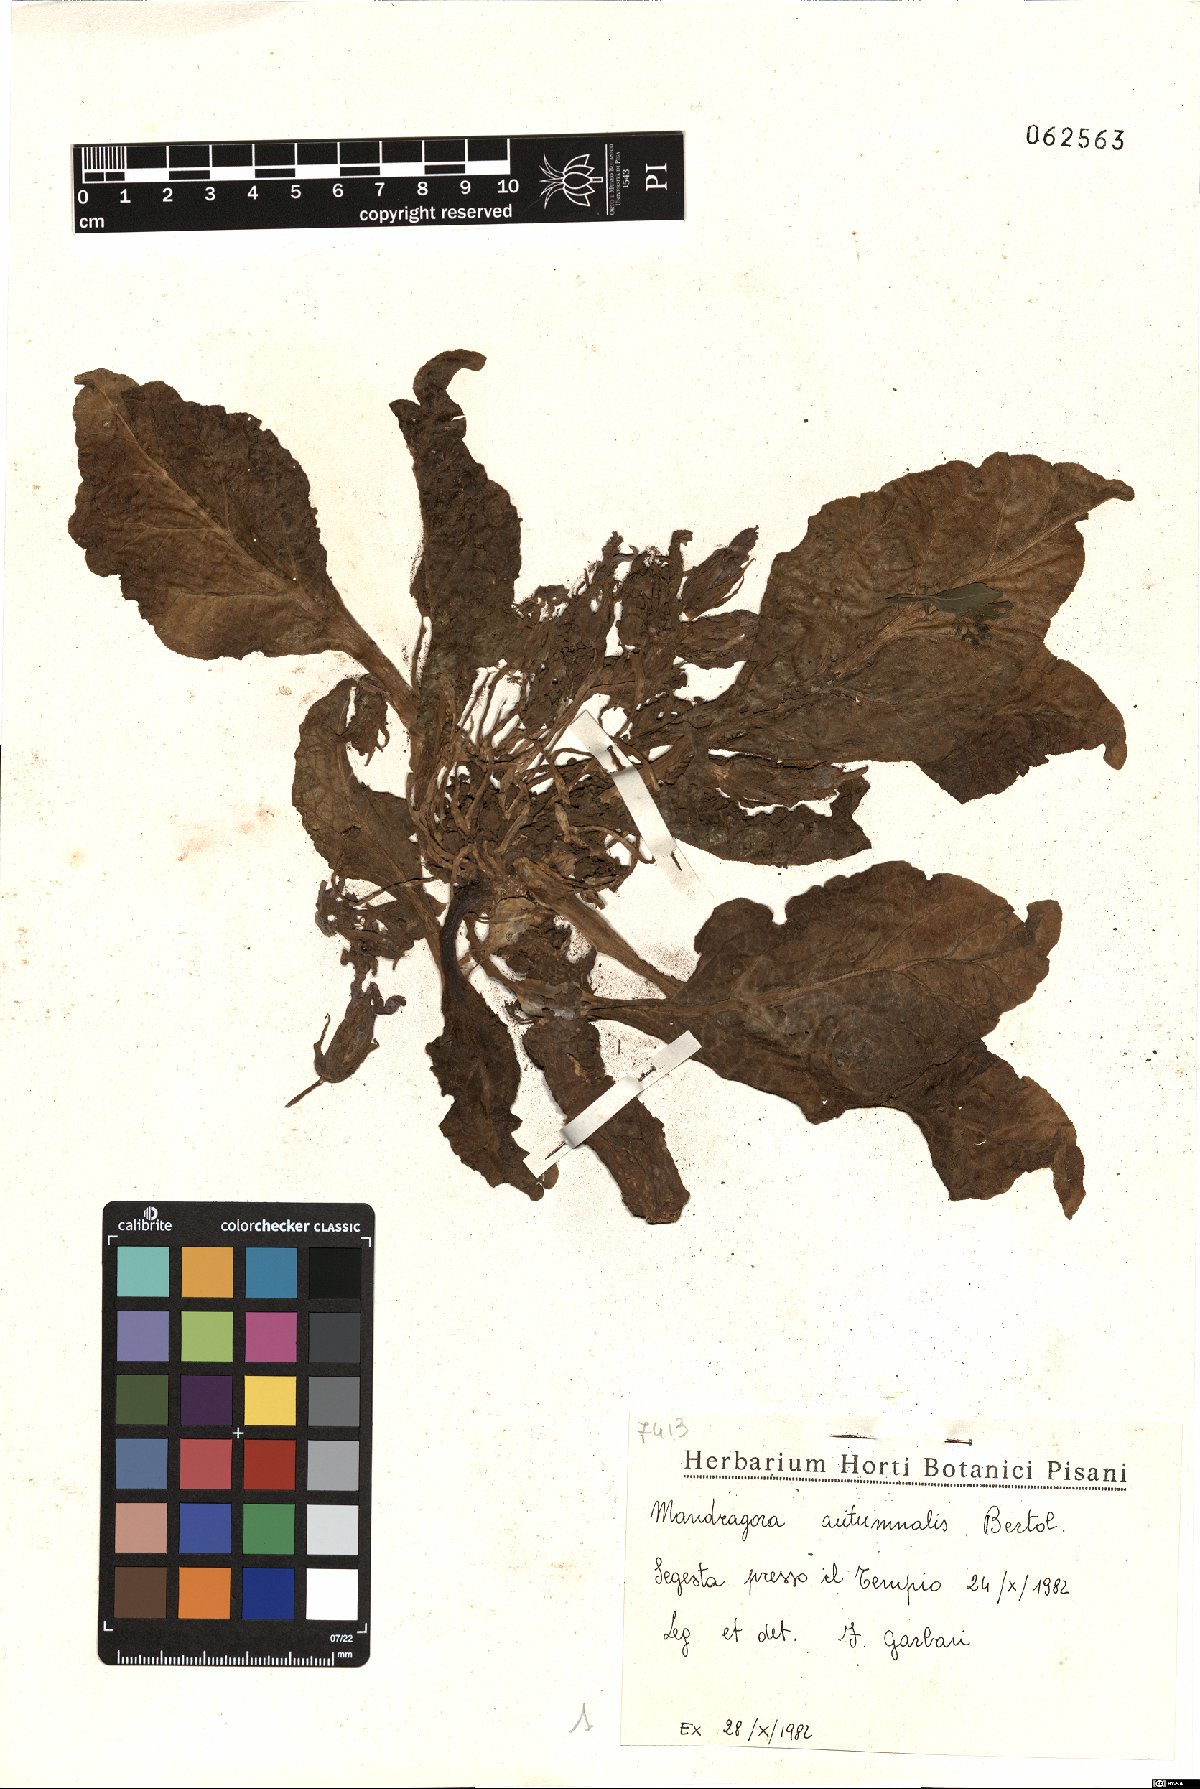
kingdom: Plantae
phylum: Tracheophyta
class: Magnoliopsida
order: Solanales
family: Solanaceae
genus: Mandragora
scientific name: Mandragora officinarum
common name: Mandrake
